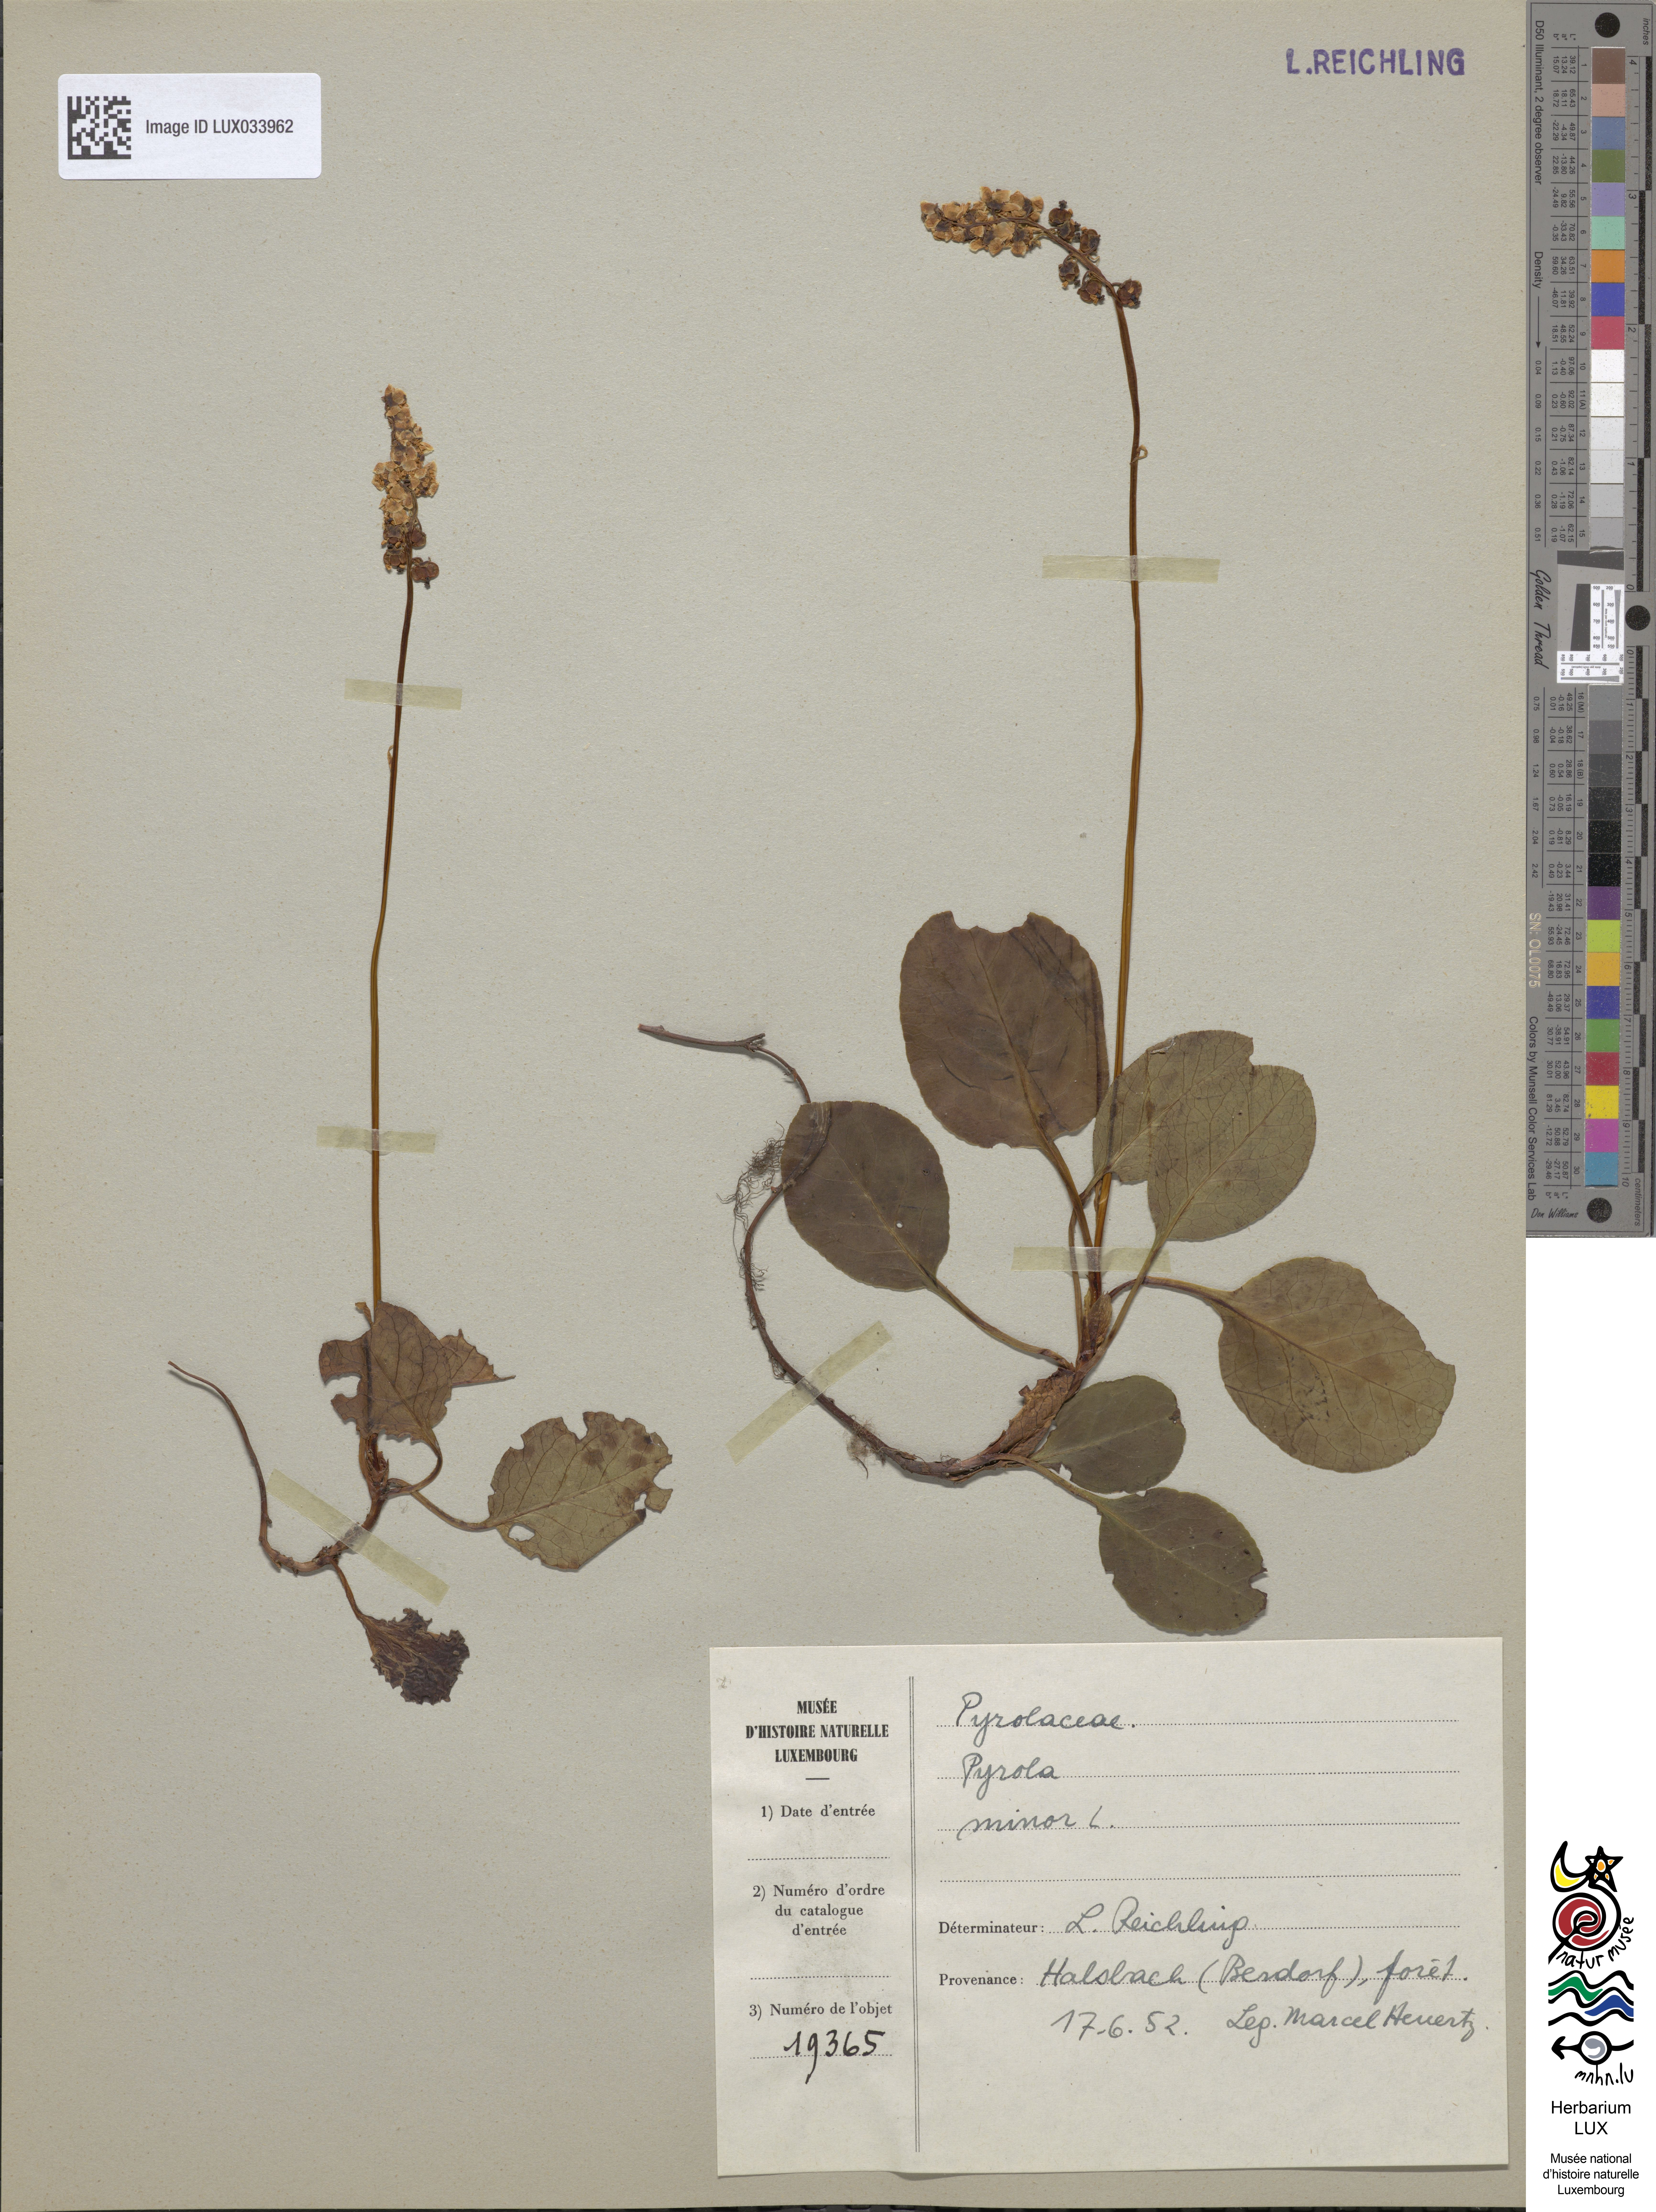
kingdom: Plantae
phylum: Tracheophyta
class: Magnoliopsida
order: Ericales
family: Ericaceae
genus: Pyrola
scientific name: Pyrola minor
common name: Common wintergreen
